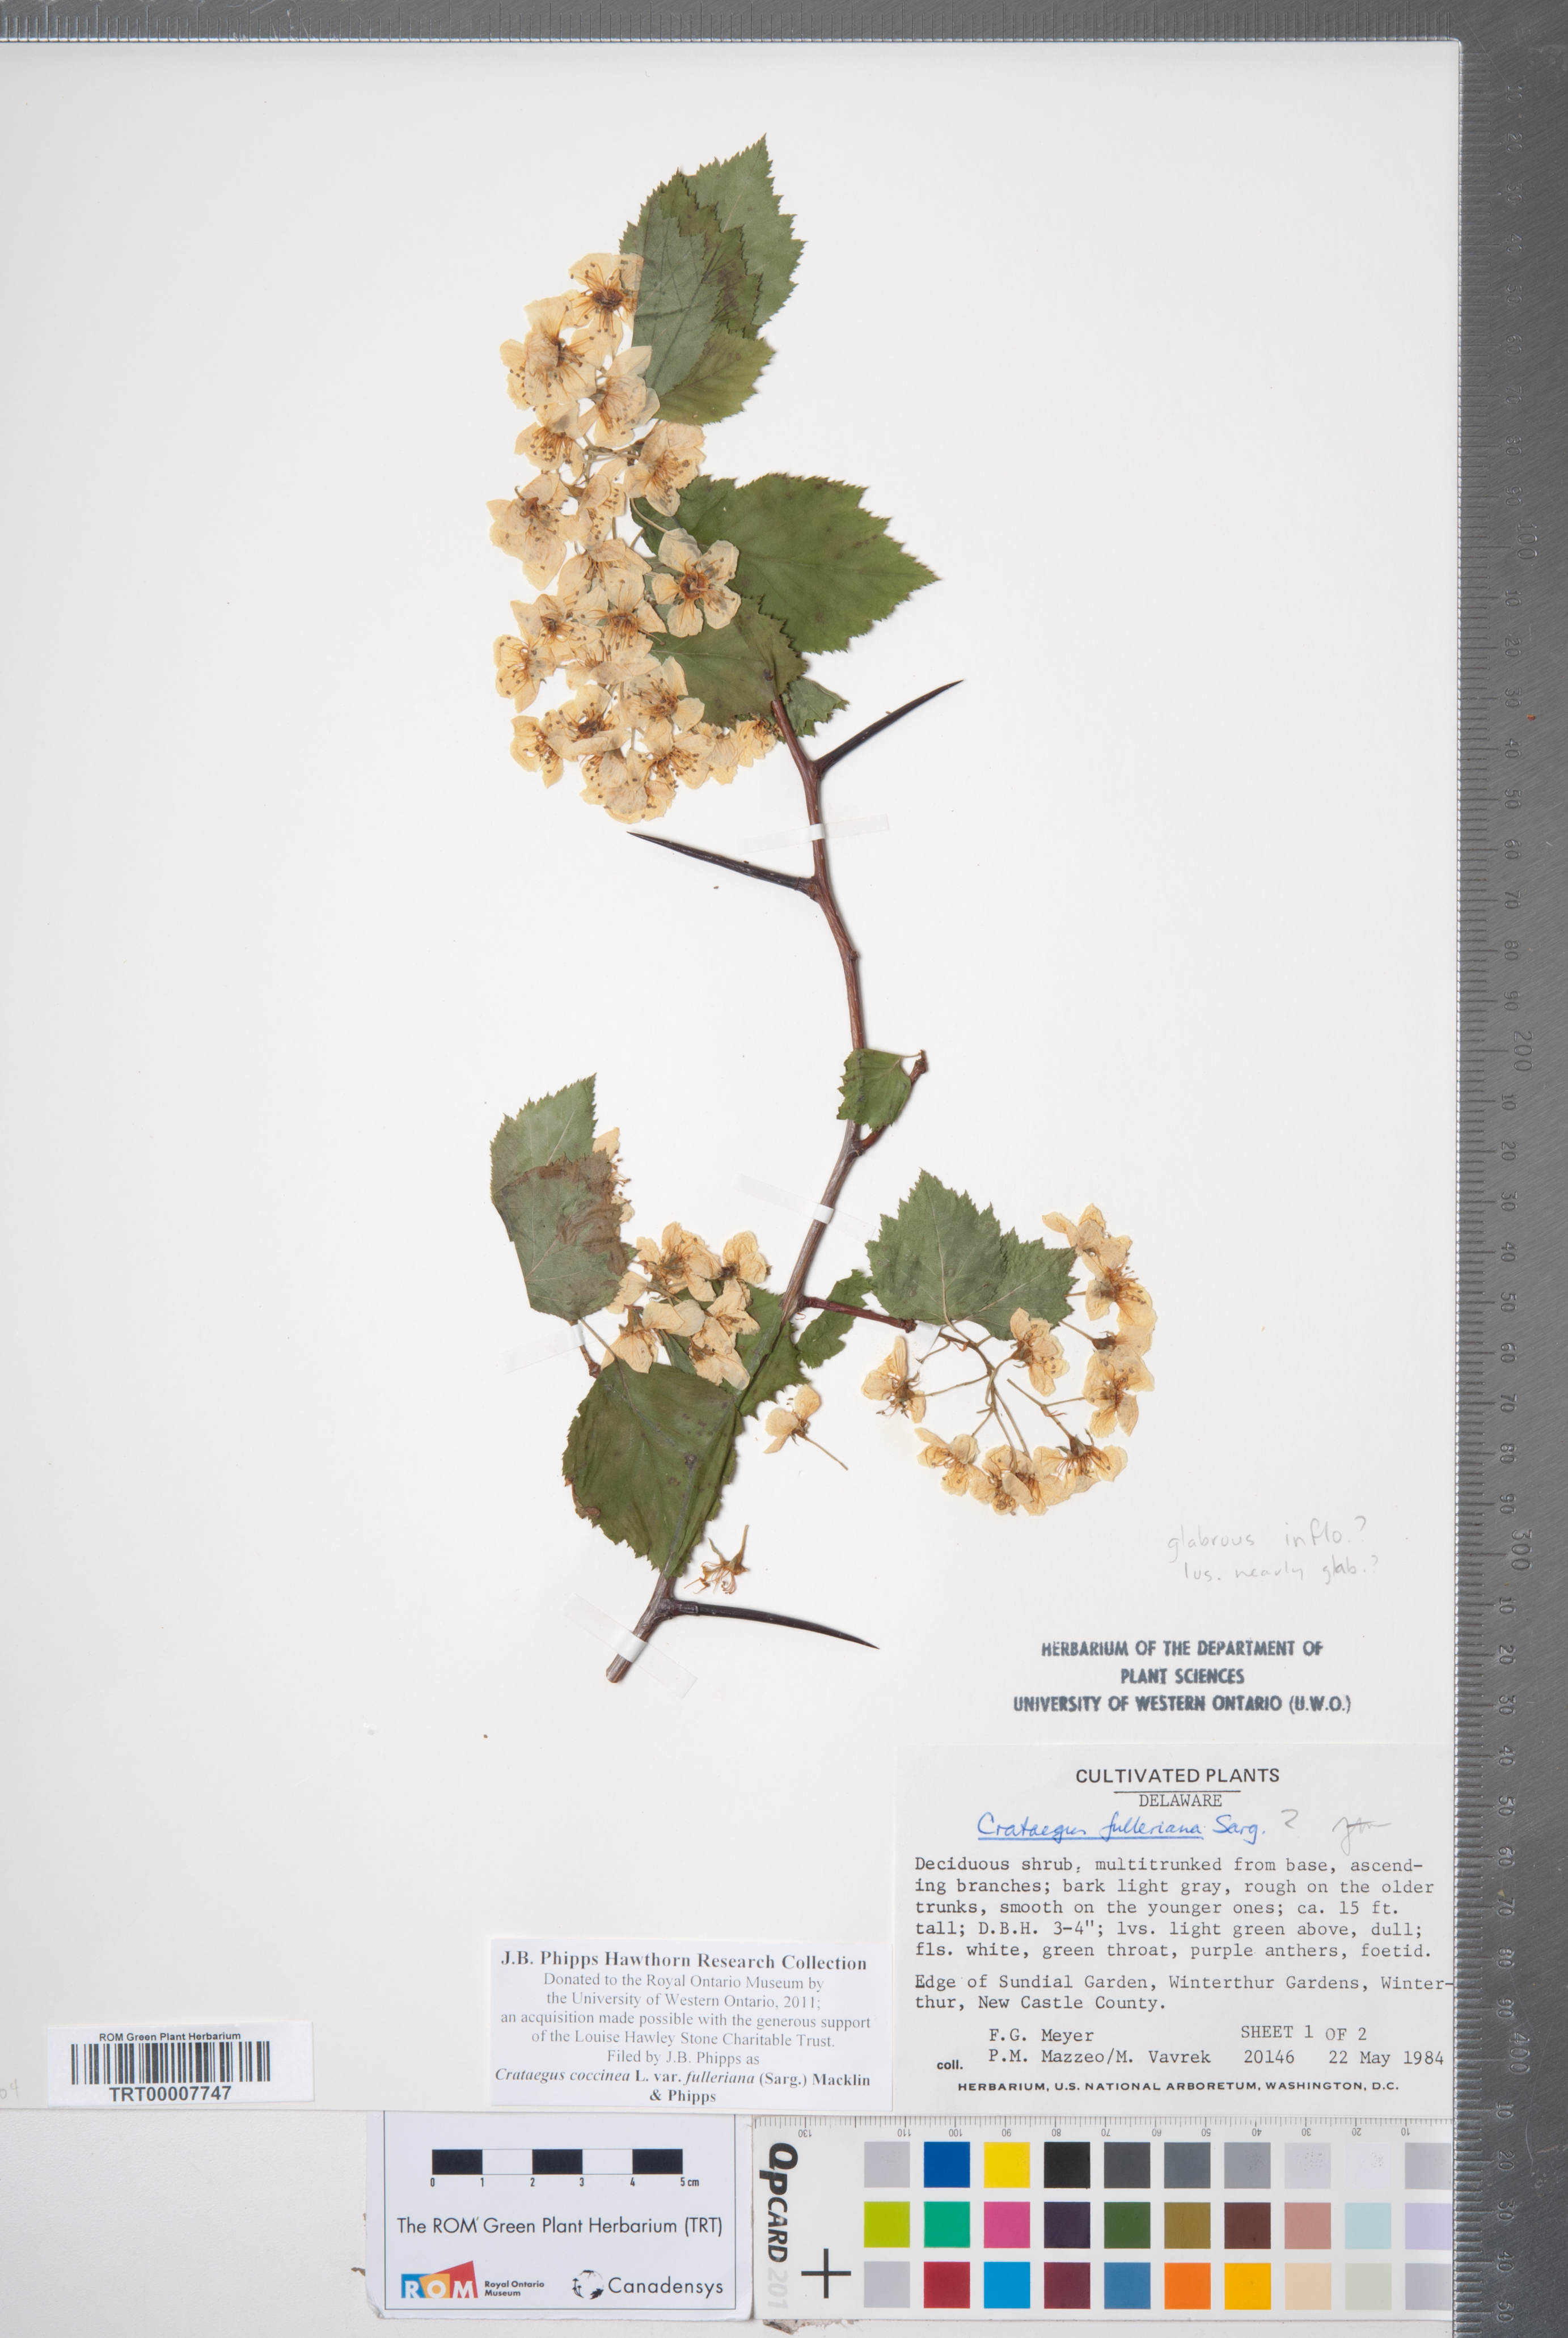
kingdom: Plantae
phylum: Tracheophyta
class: Magnoliopsida
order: Rosales
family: Rosaceae
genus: Crataegus
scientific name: Crataegus coccinea
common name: Scarlet hawthorn
